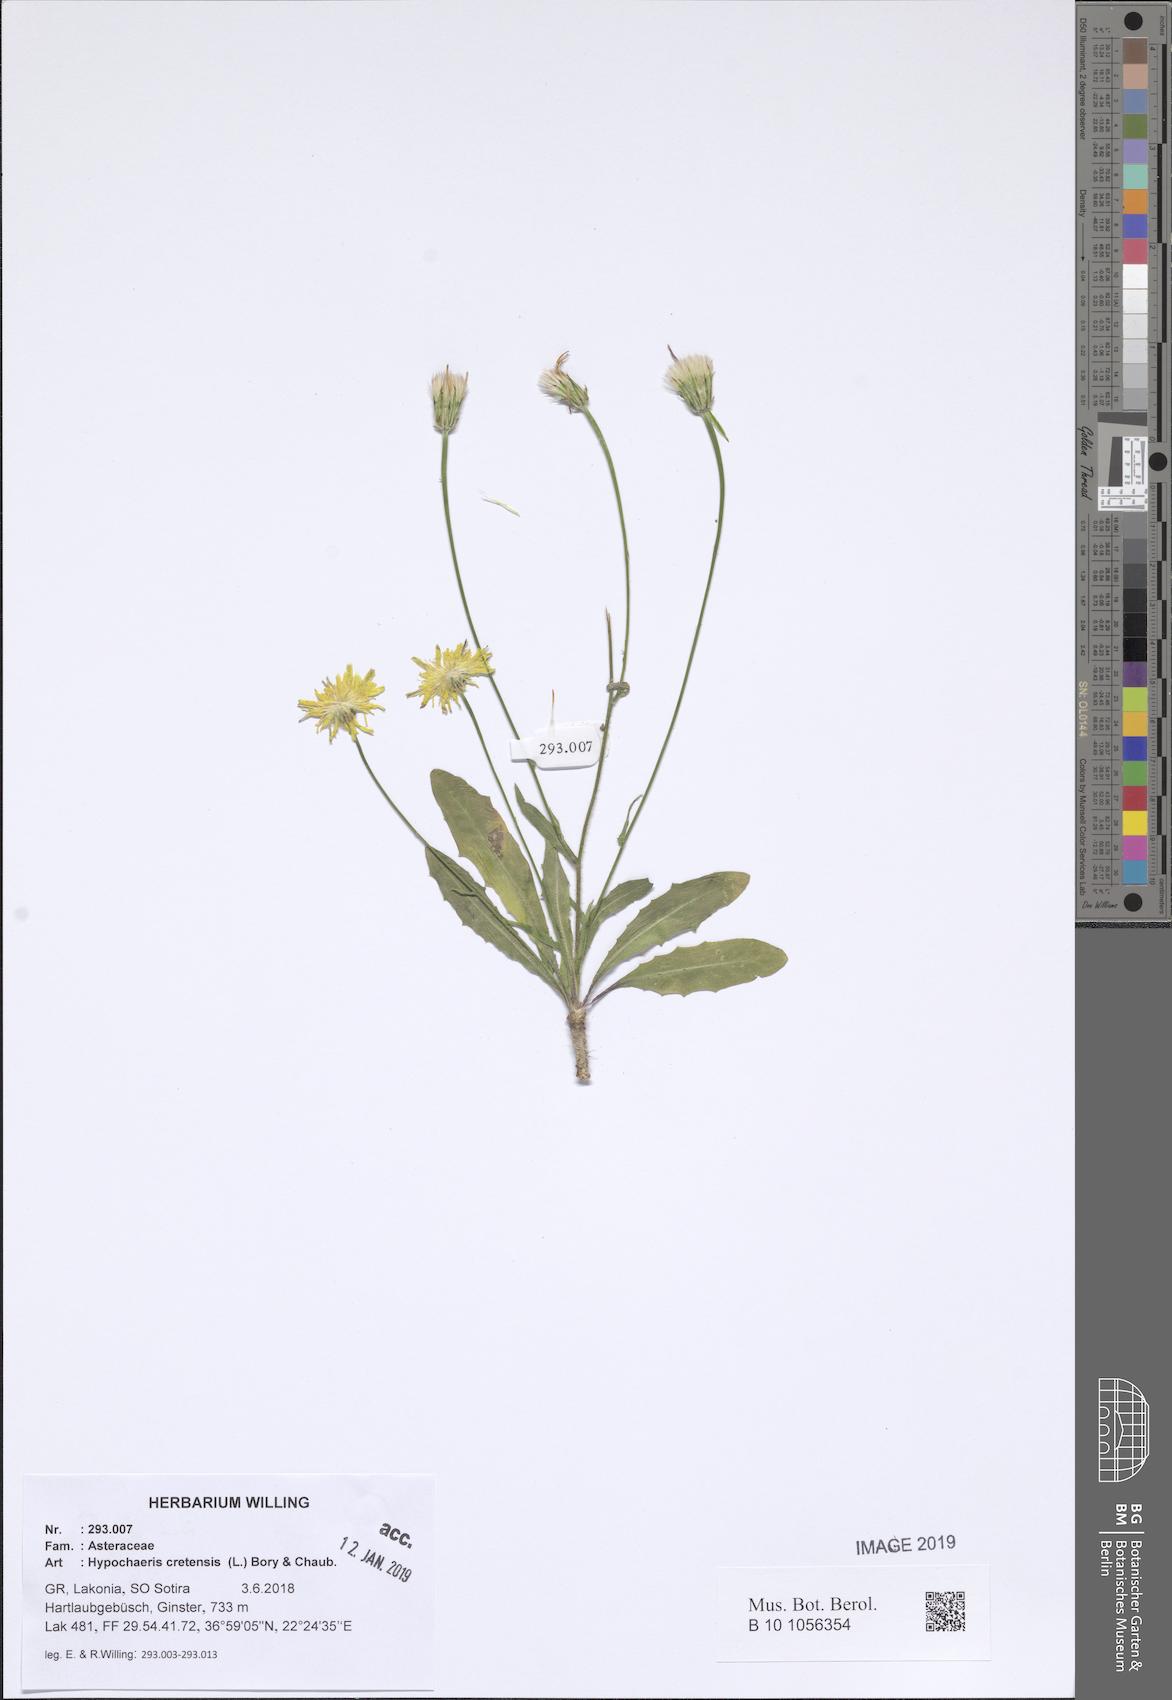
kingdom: Plantae
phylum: Tracheophyta
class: Magnoliopsida
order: Asterales
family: Asteraceae
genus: Hypochaeris
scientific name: Hypochaeris cretensis
